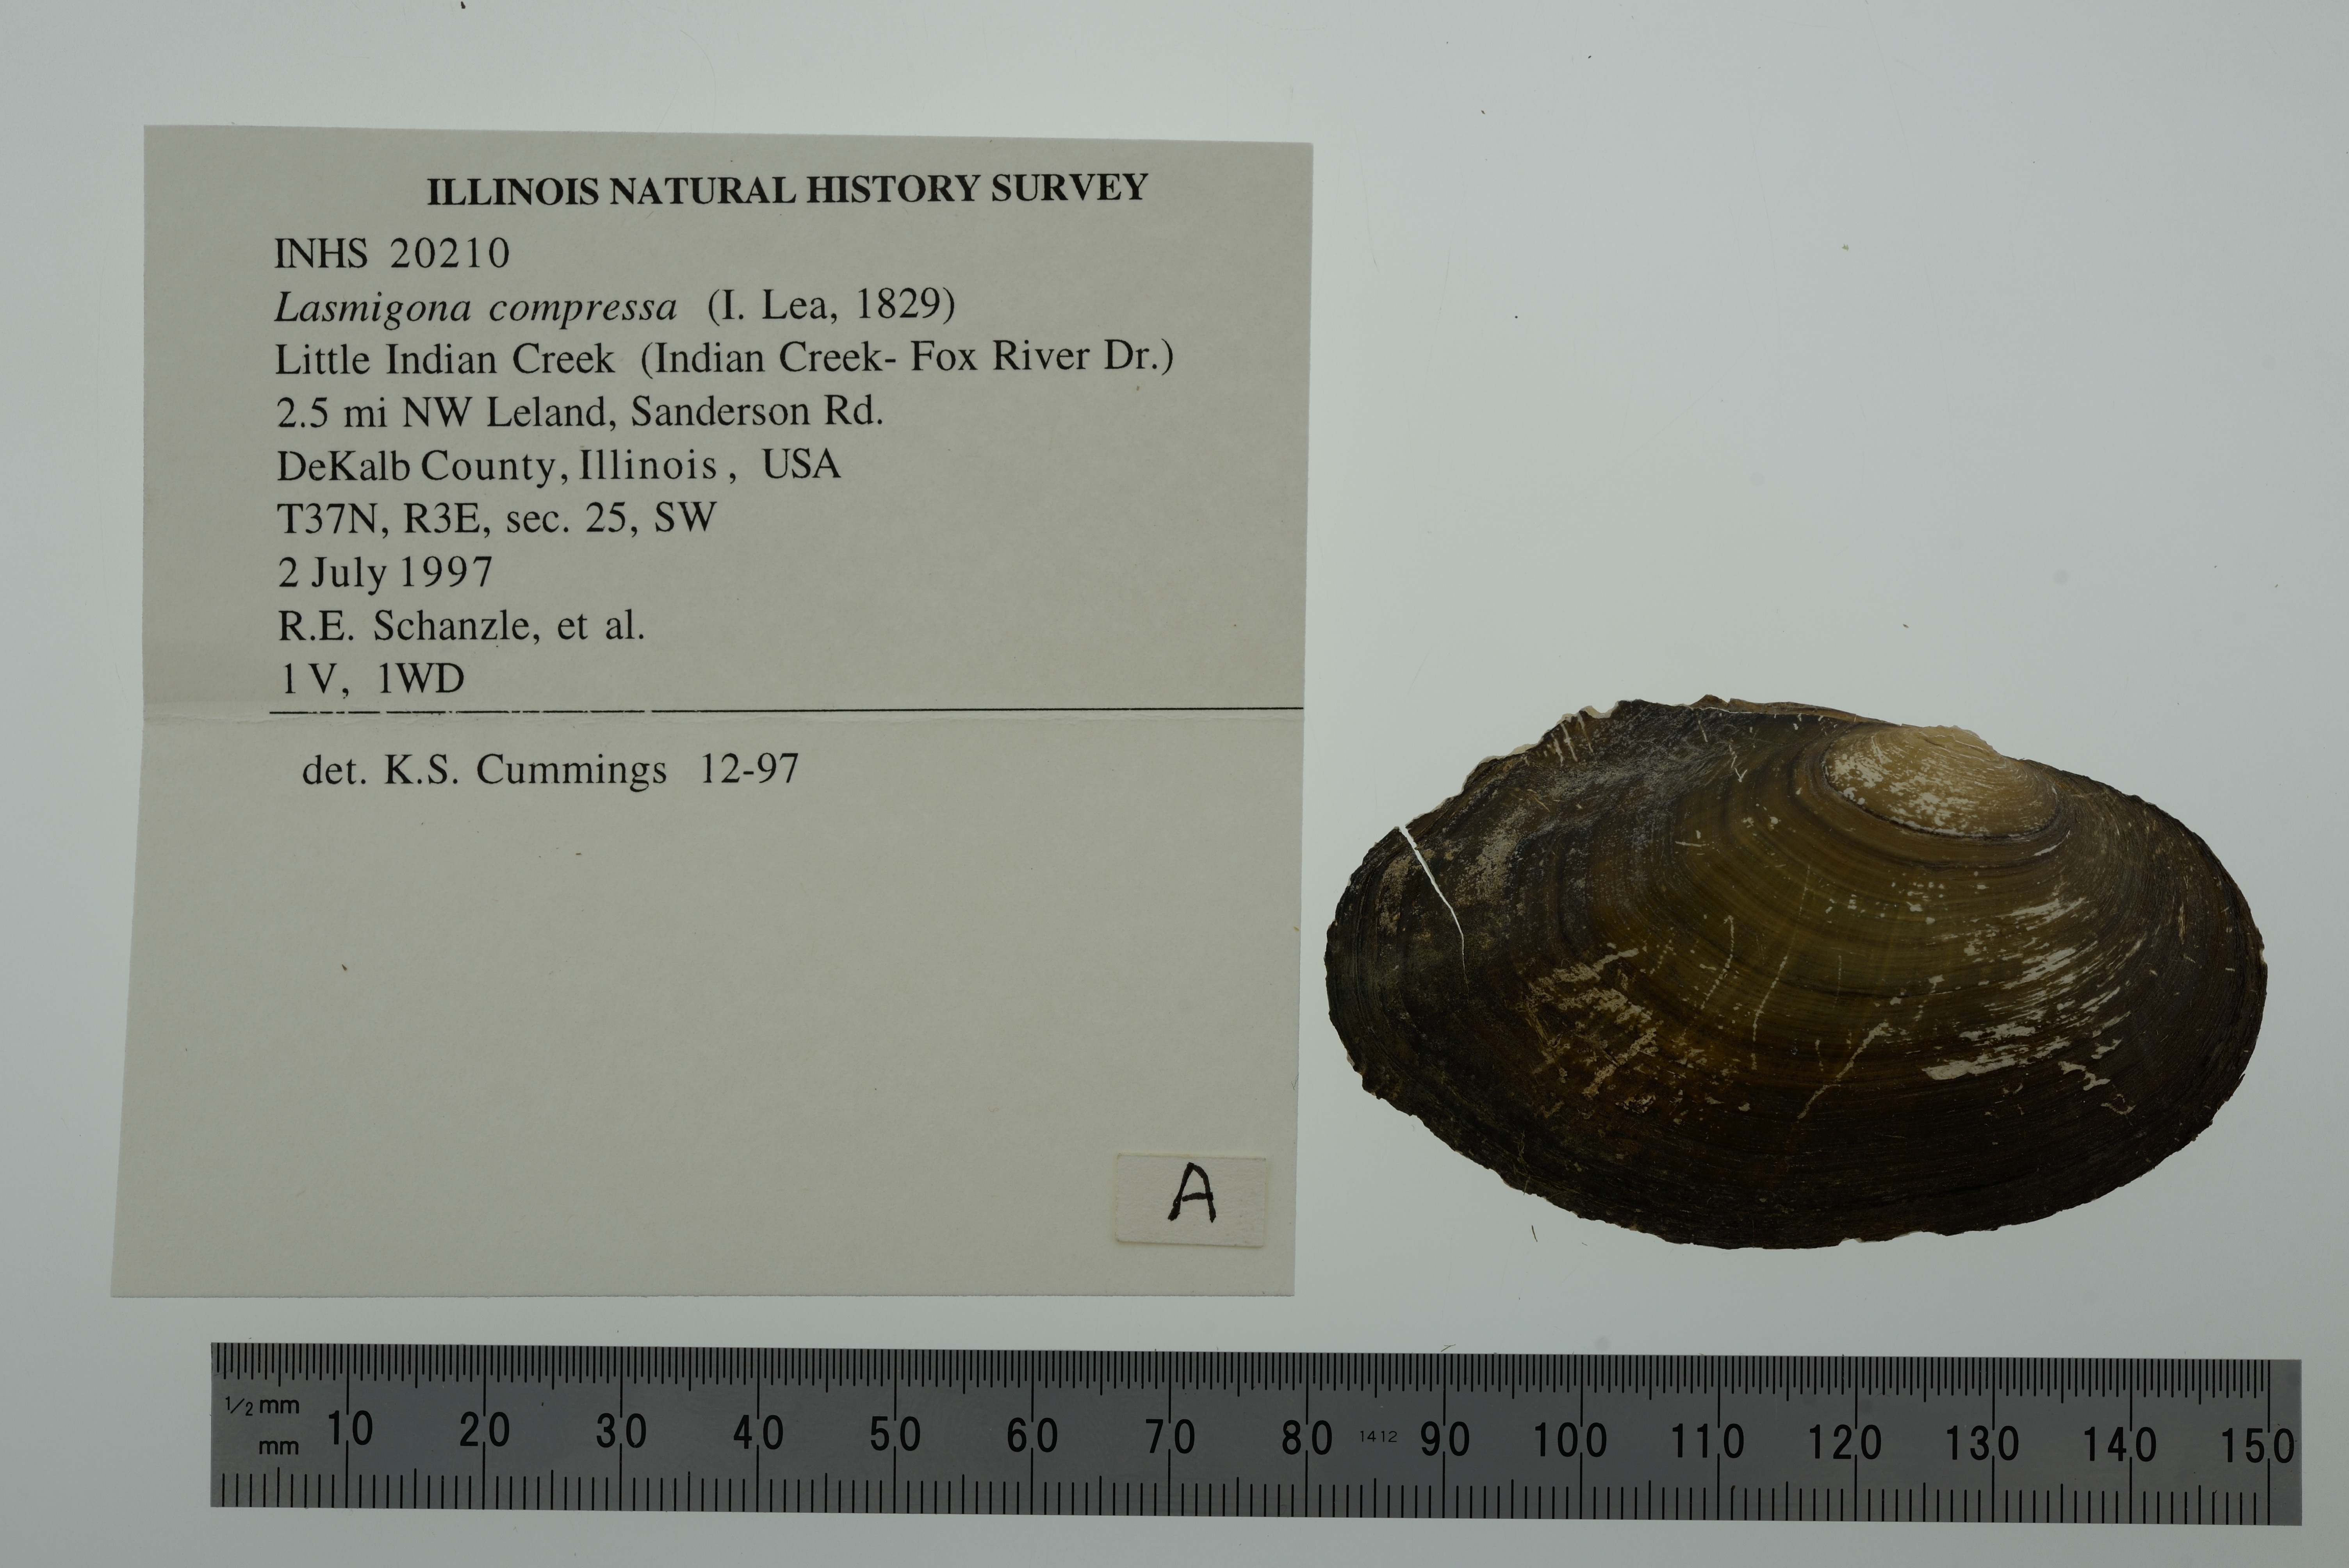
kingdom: Animalia
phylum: Mollusca
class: Bivalvia
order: Unionida
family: Unionidae
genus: Lasmigona
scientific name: Lasmigona compressa
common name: Creek heelsplitter
